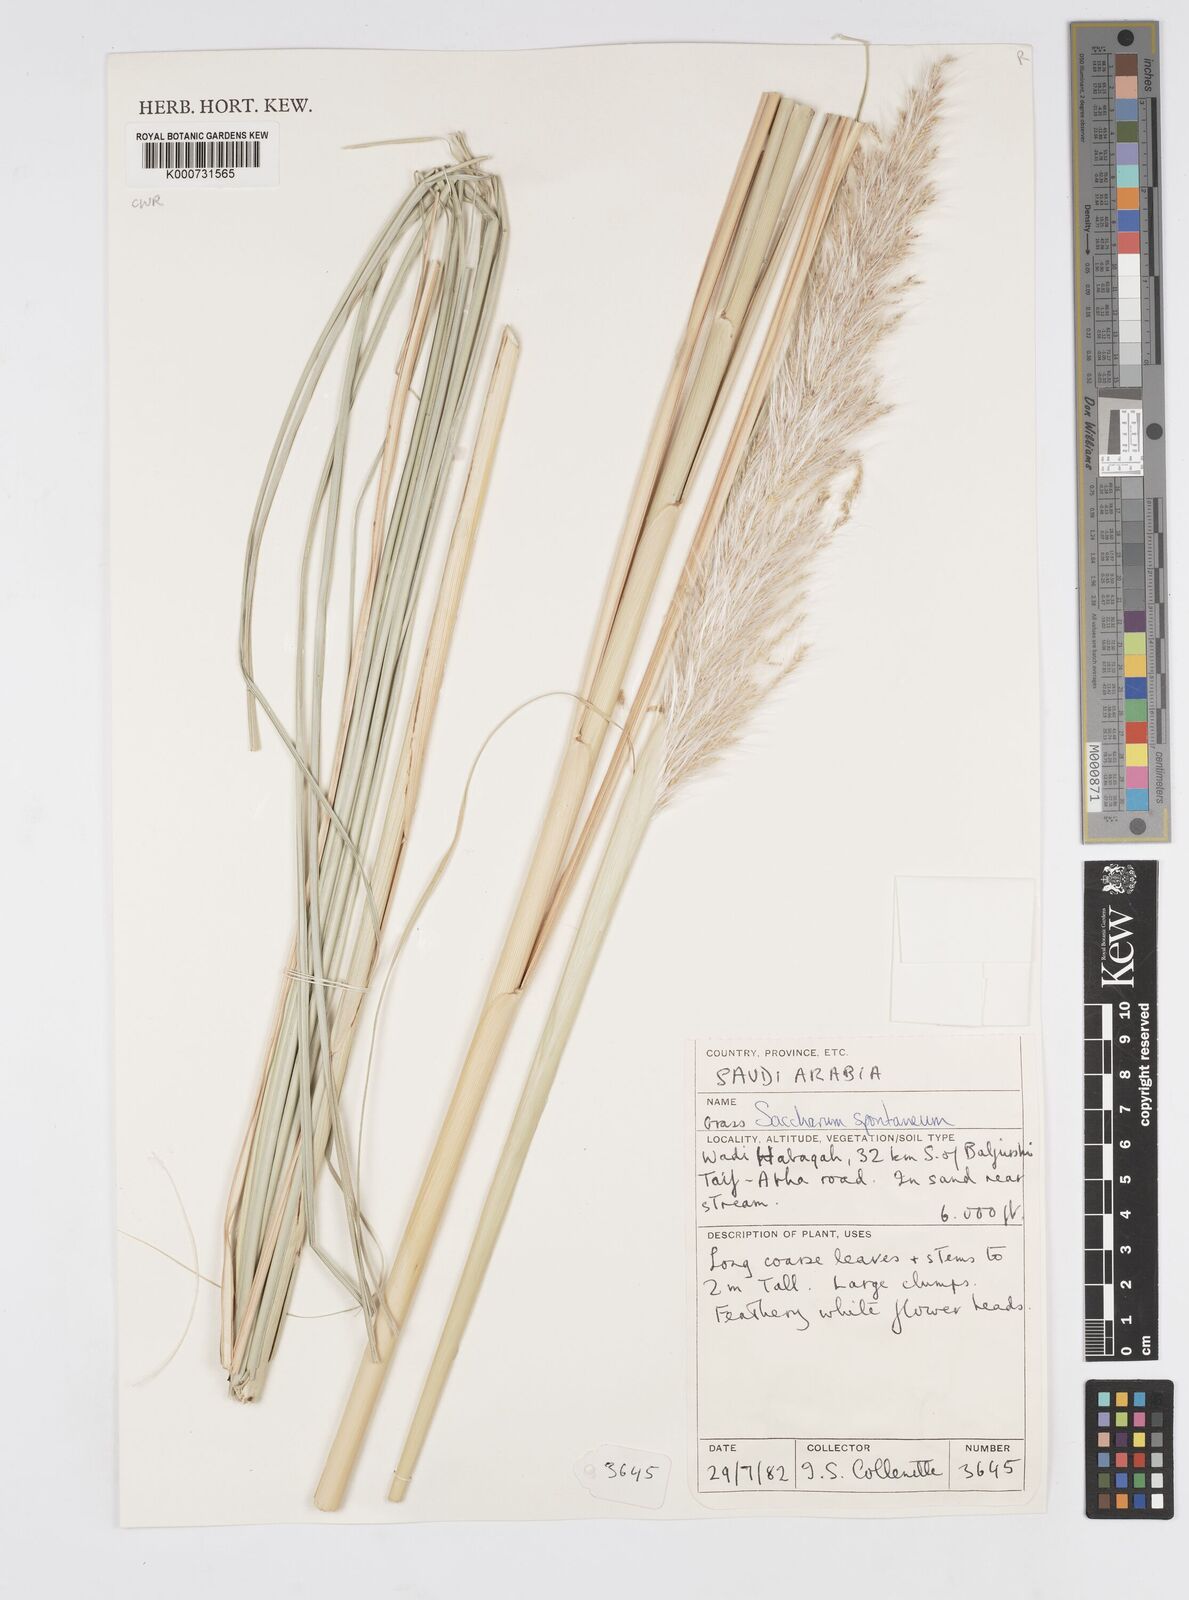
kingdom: Plantae
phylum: Tracheophyta
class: Liliopsida
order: Poales
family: Poaceae
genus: Saccharum
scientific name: Saccharum spontaneum
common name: Wild sugarcane
